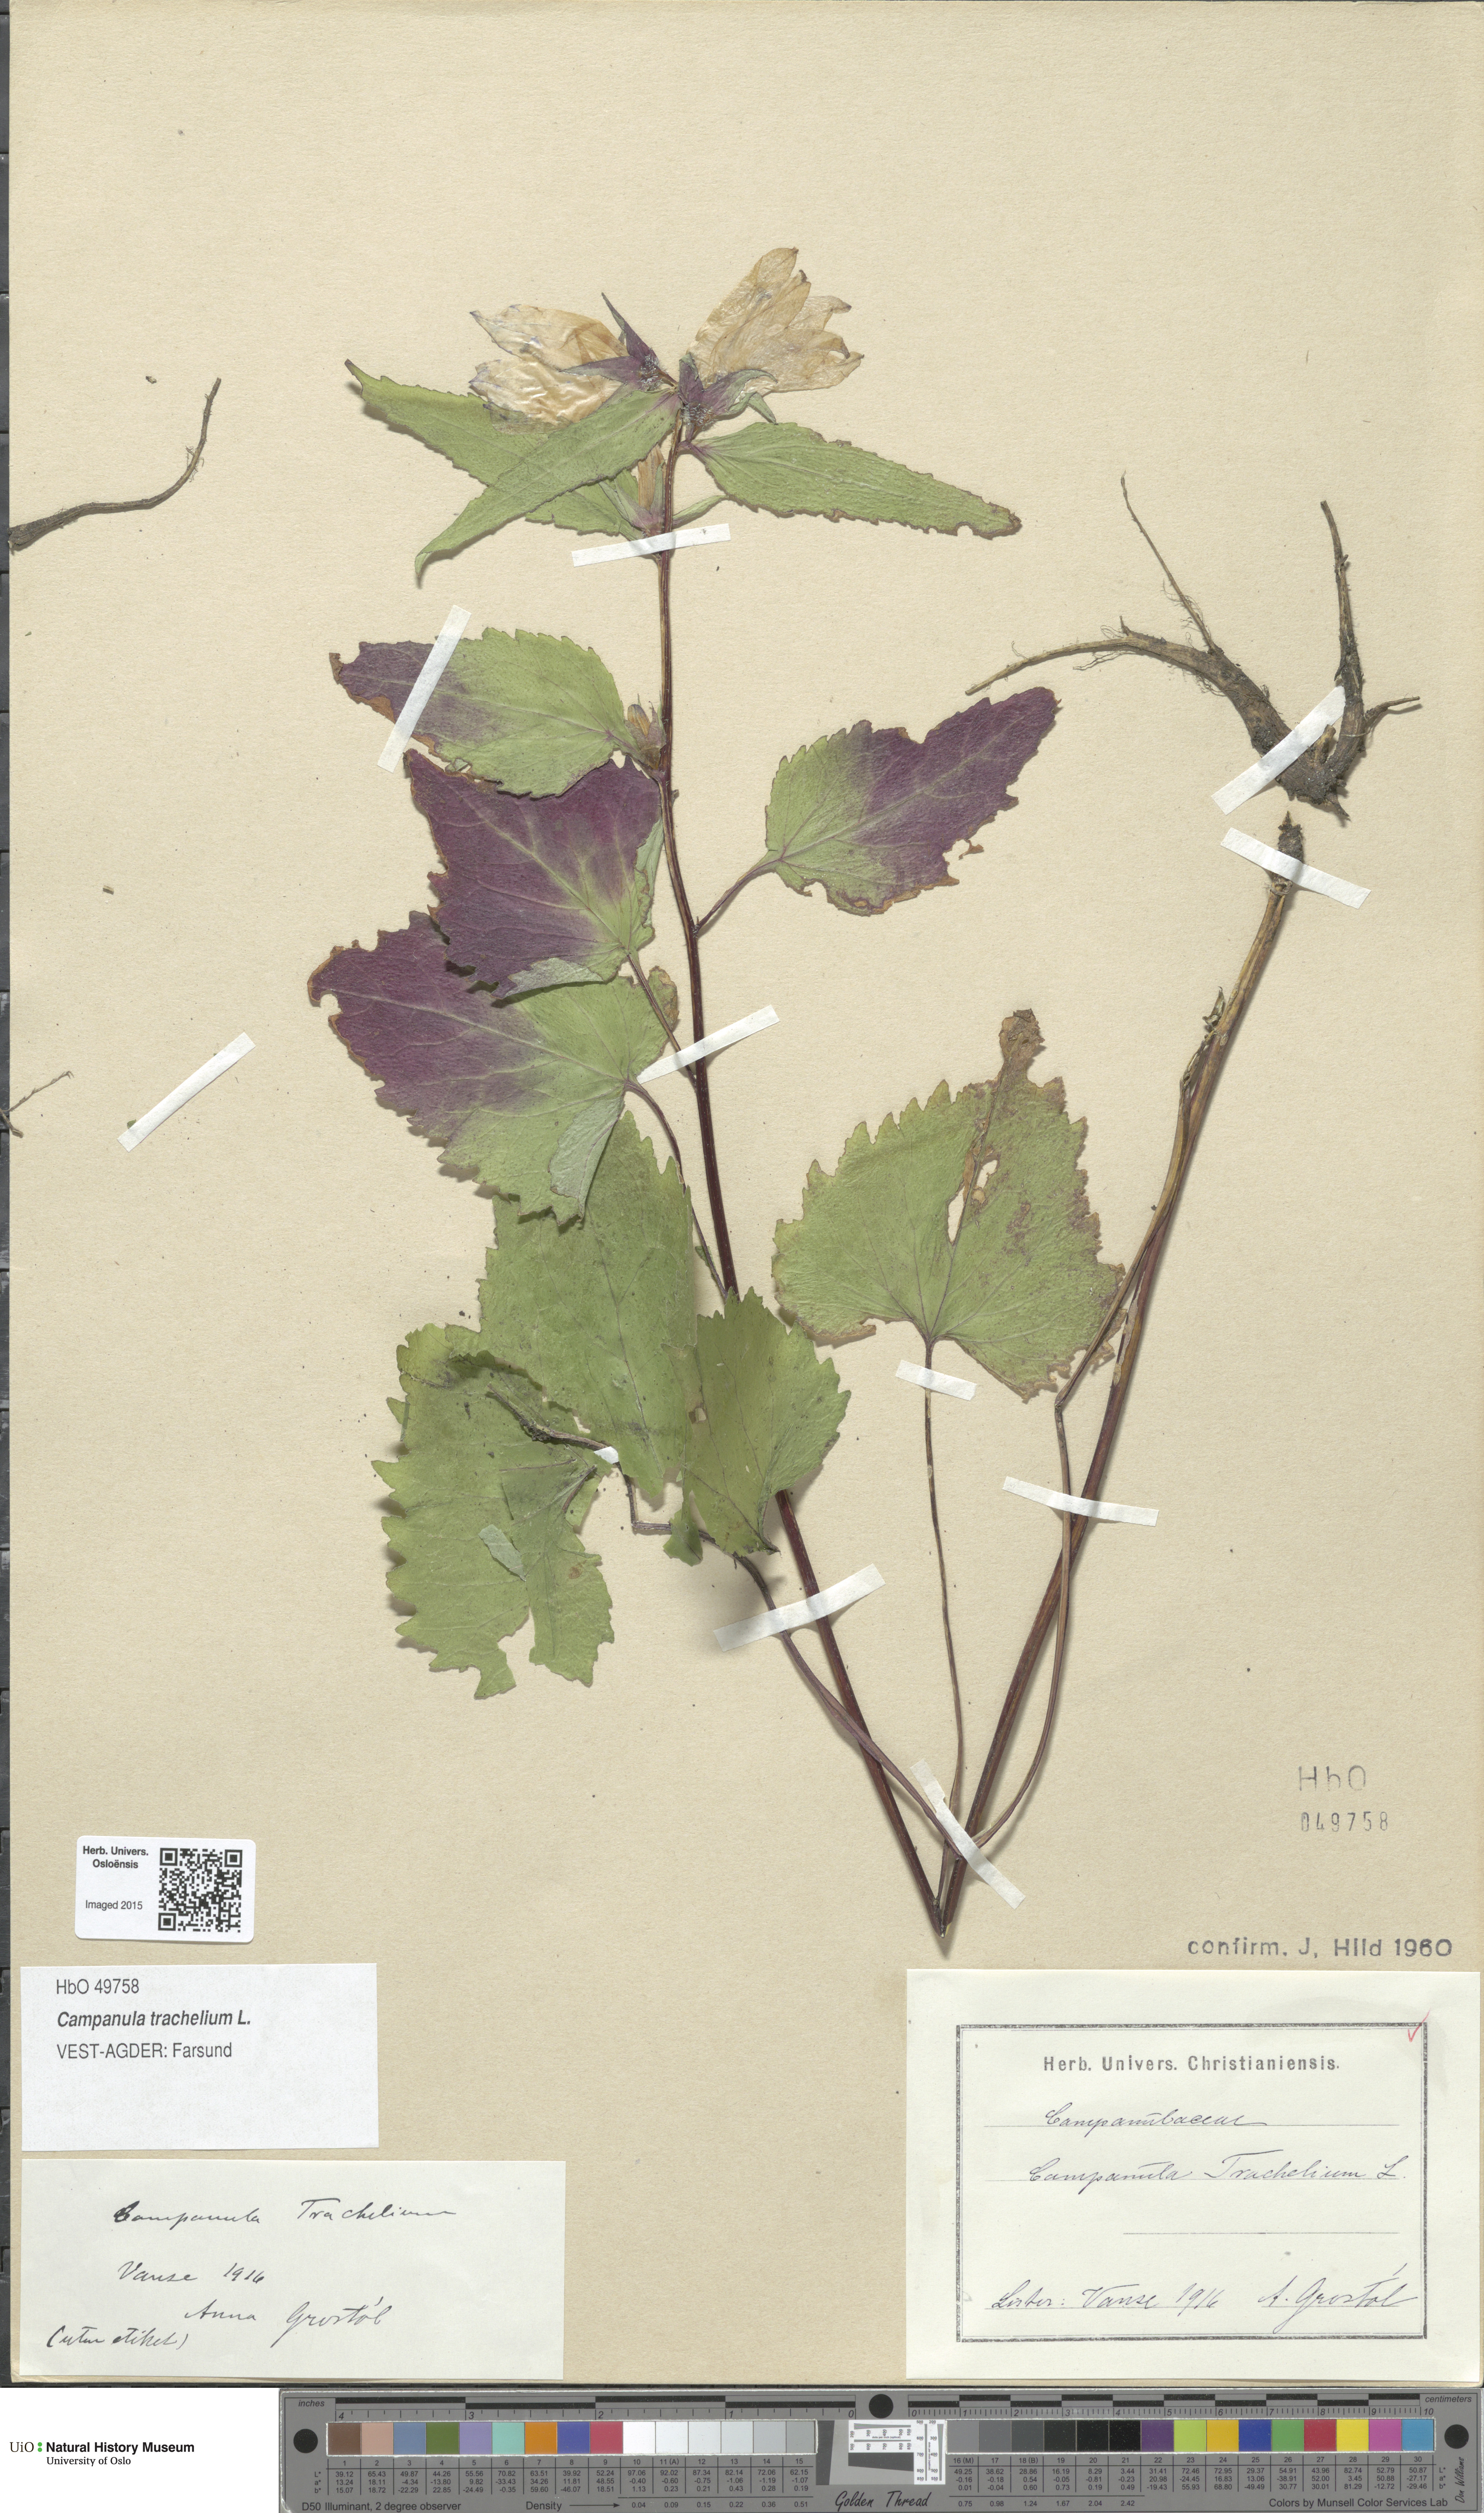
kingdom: Plantae
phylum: Tracheophyta
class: Magnoliopsida
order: Asterales
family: Campanulaceae
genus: Campanula
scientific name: Campanula trachelium
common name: Nettle-leaved bellflower
